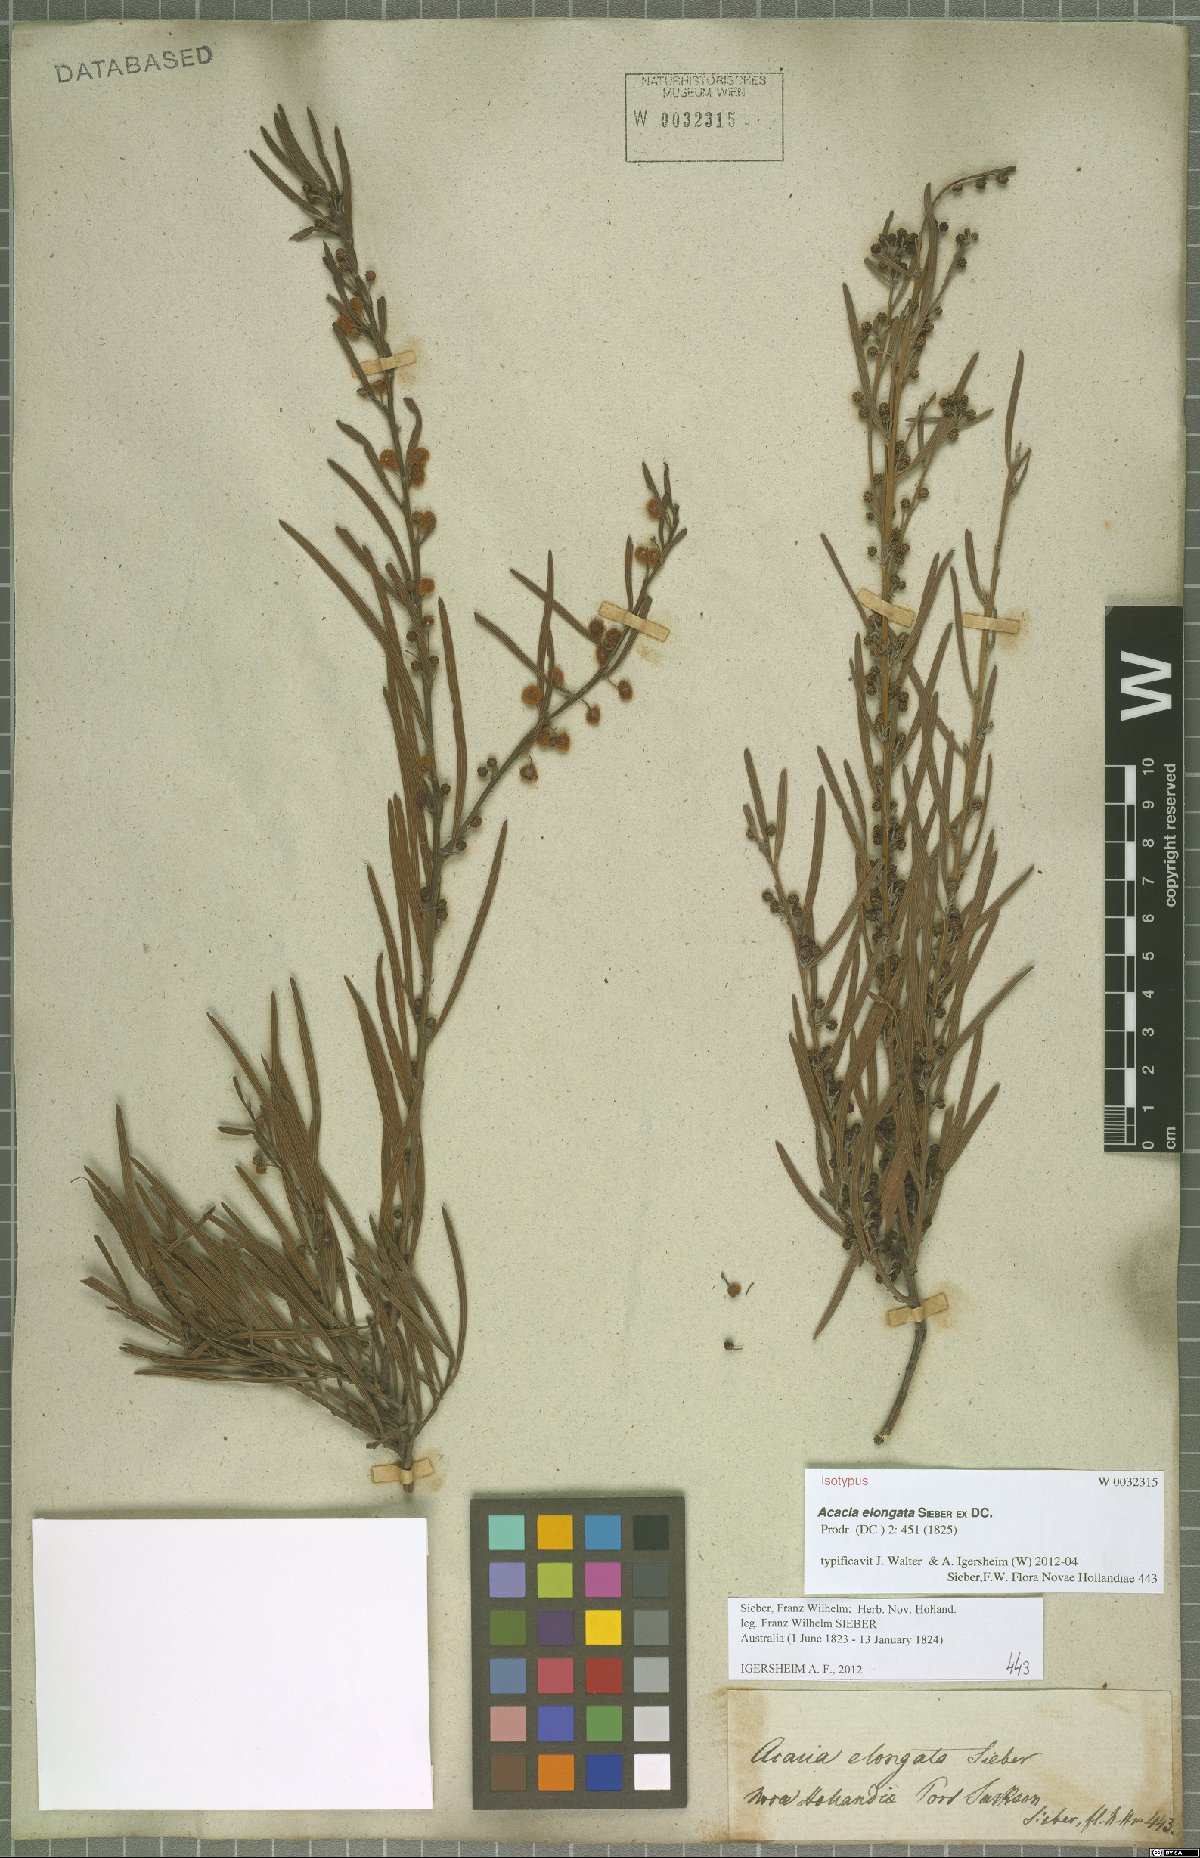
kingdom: Plantae
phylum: Tracheophyta
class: Magnoliopsida
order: Fabales
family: Fabaceae
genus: Acacia
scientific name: Acacia elongata
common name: Swamp wattle
